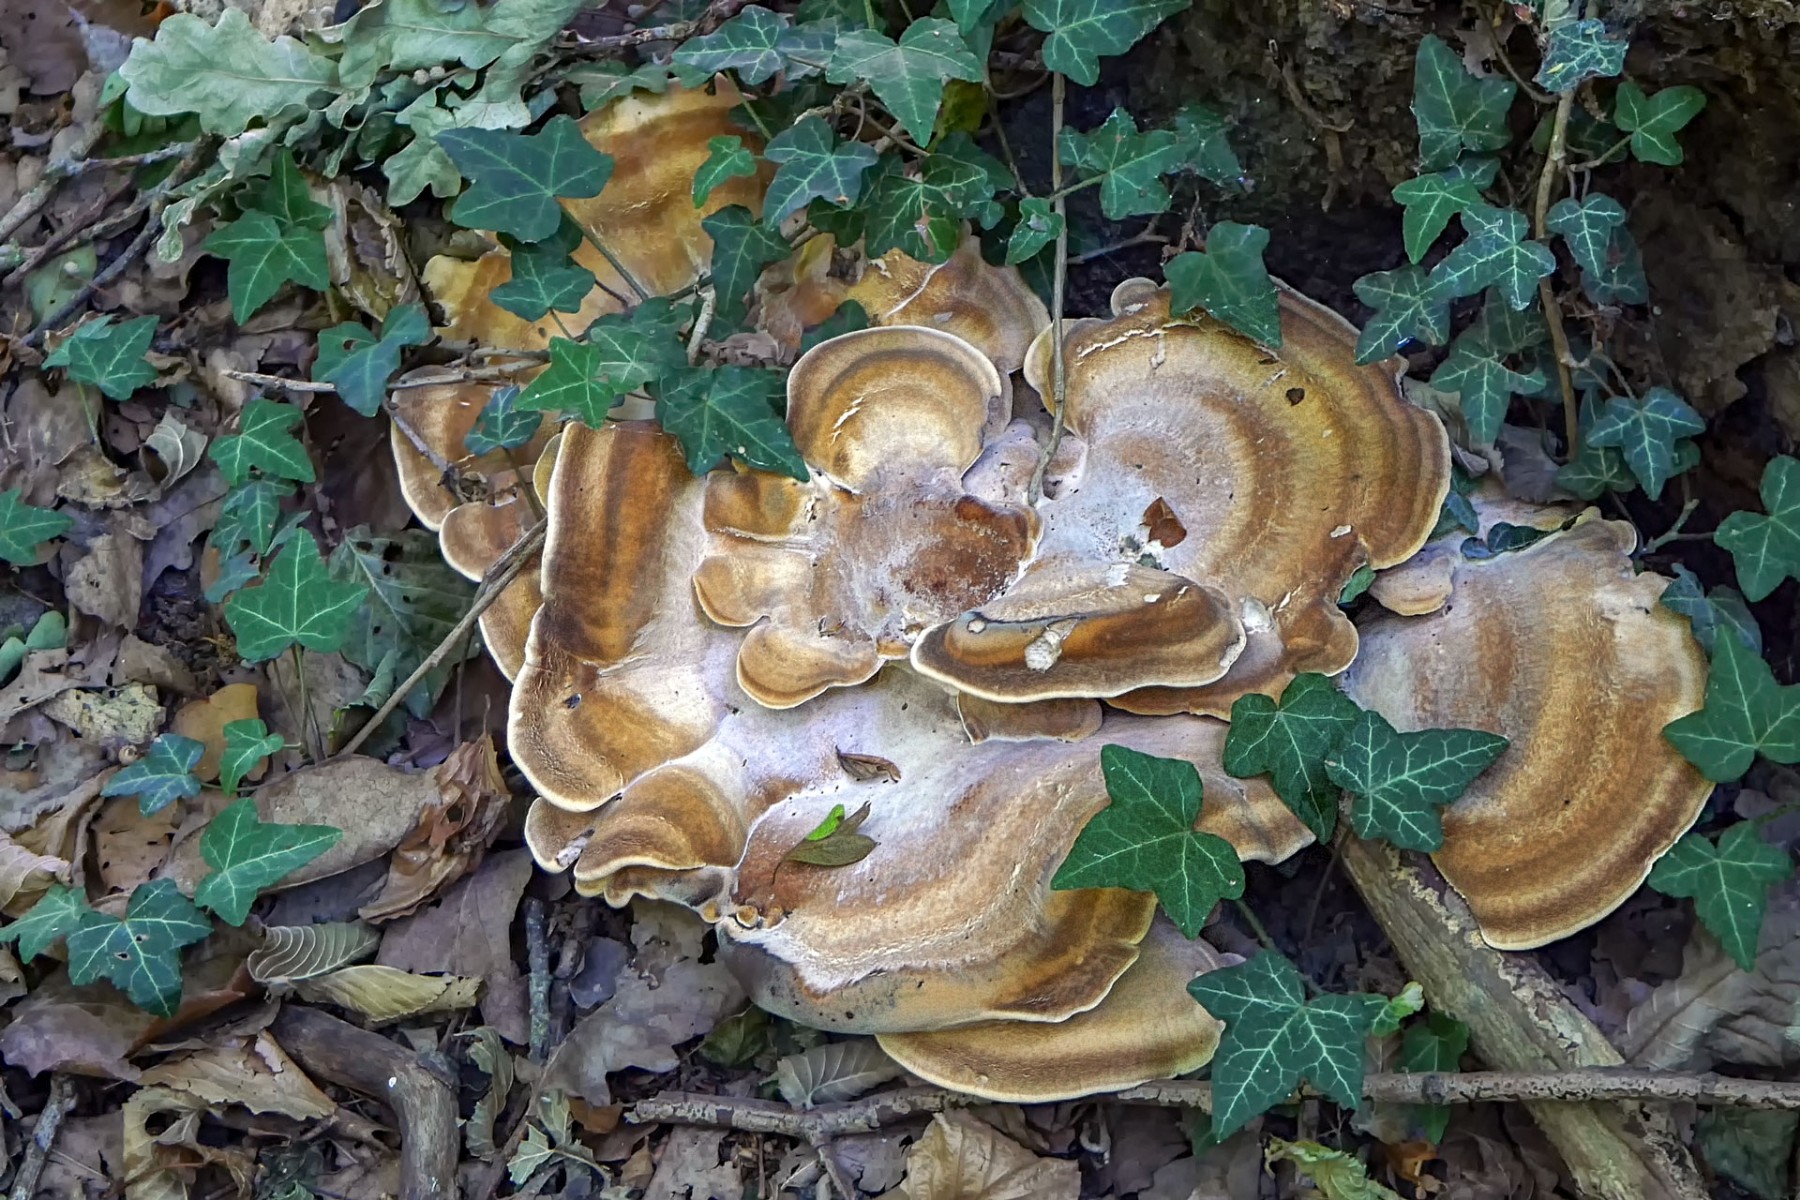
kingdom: Fungi
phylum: Basidiomycota
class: Agaricomycetes
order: Polyporales
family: Meripilaceae
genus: Meripilus
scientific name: Meripilus giganteus
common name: kæmpeporesvamp
